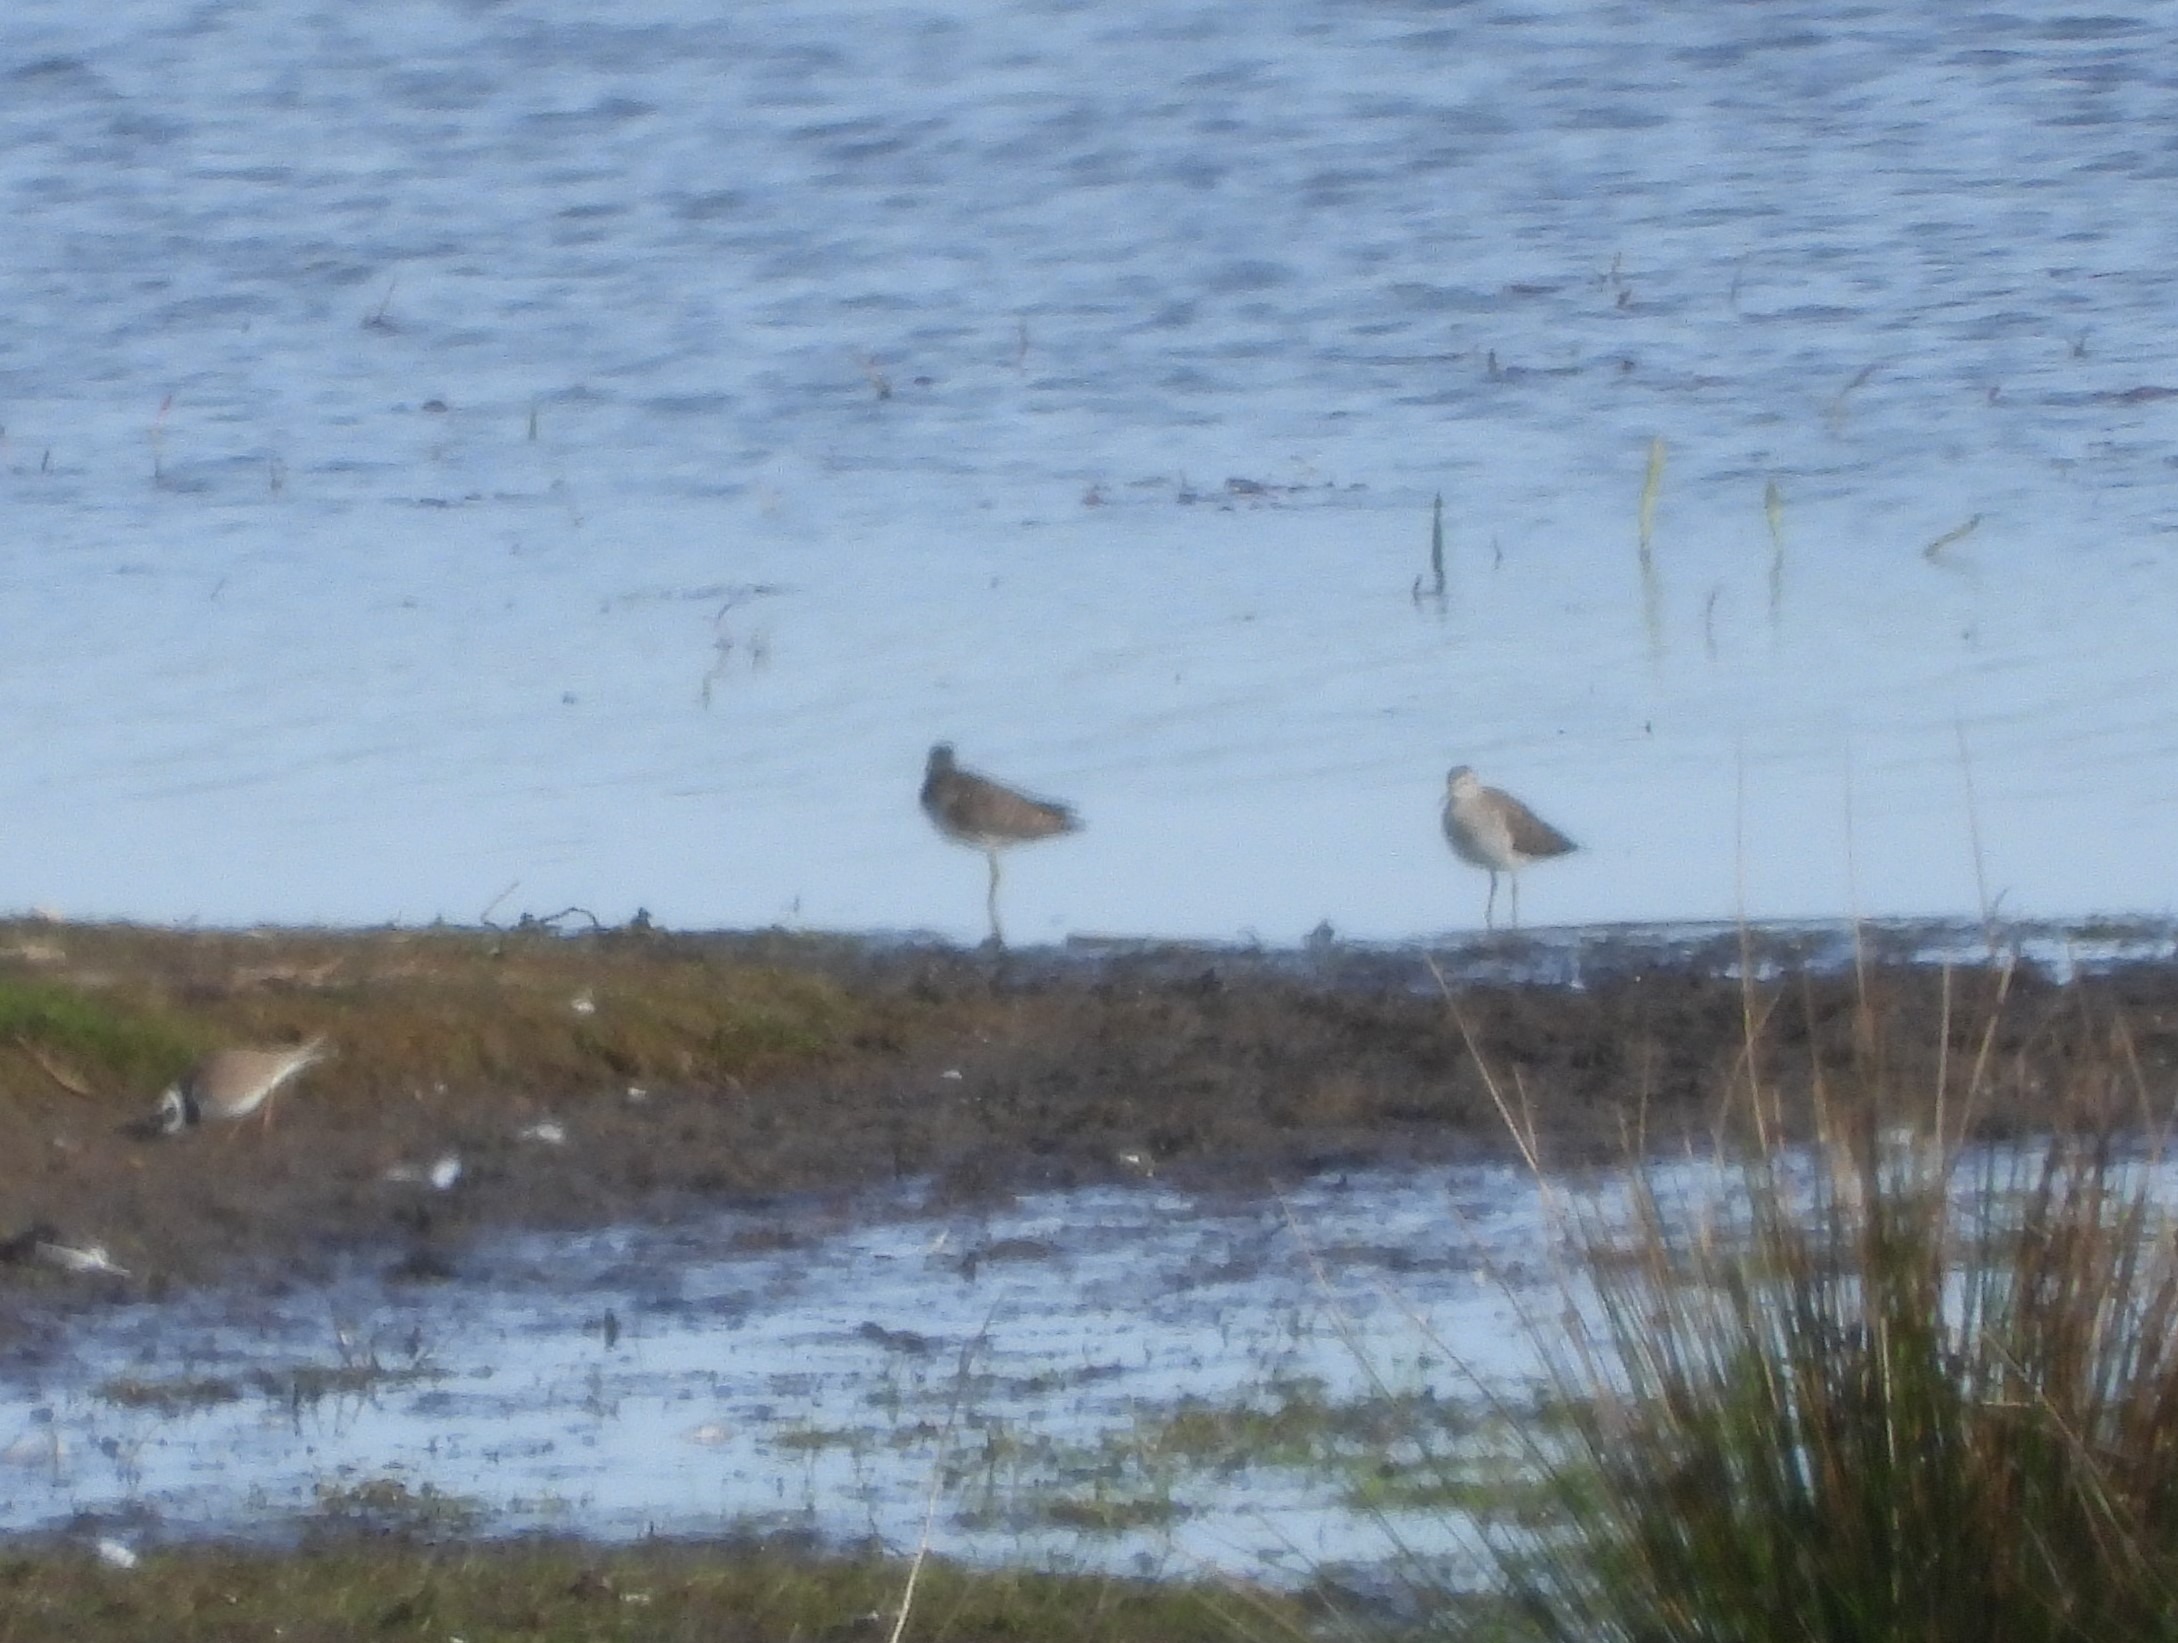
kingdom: Animalia
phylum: Chordata
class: Aves
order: Charadriiformes
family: Scolopacidae
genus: Tringa
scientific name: Tringa glareola
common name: Tinksmed
